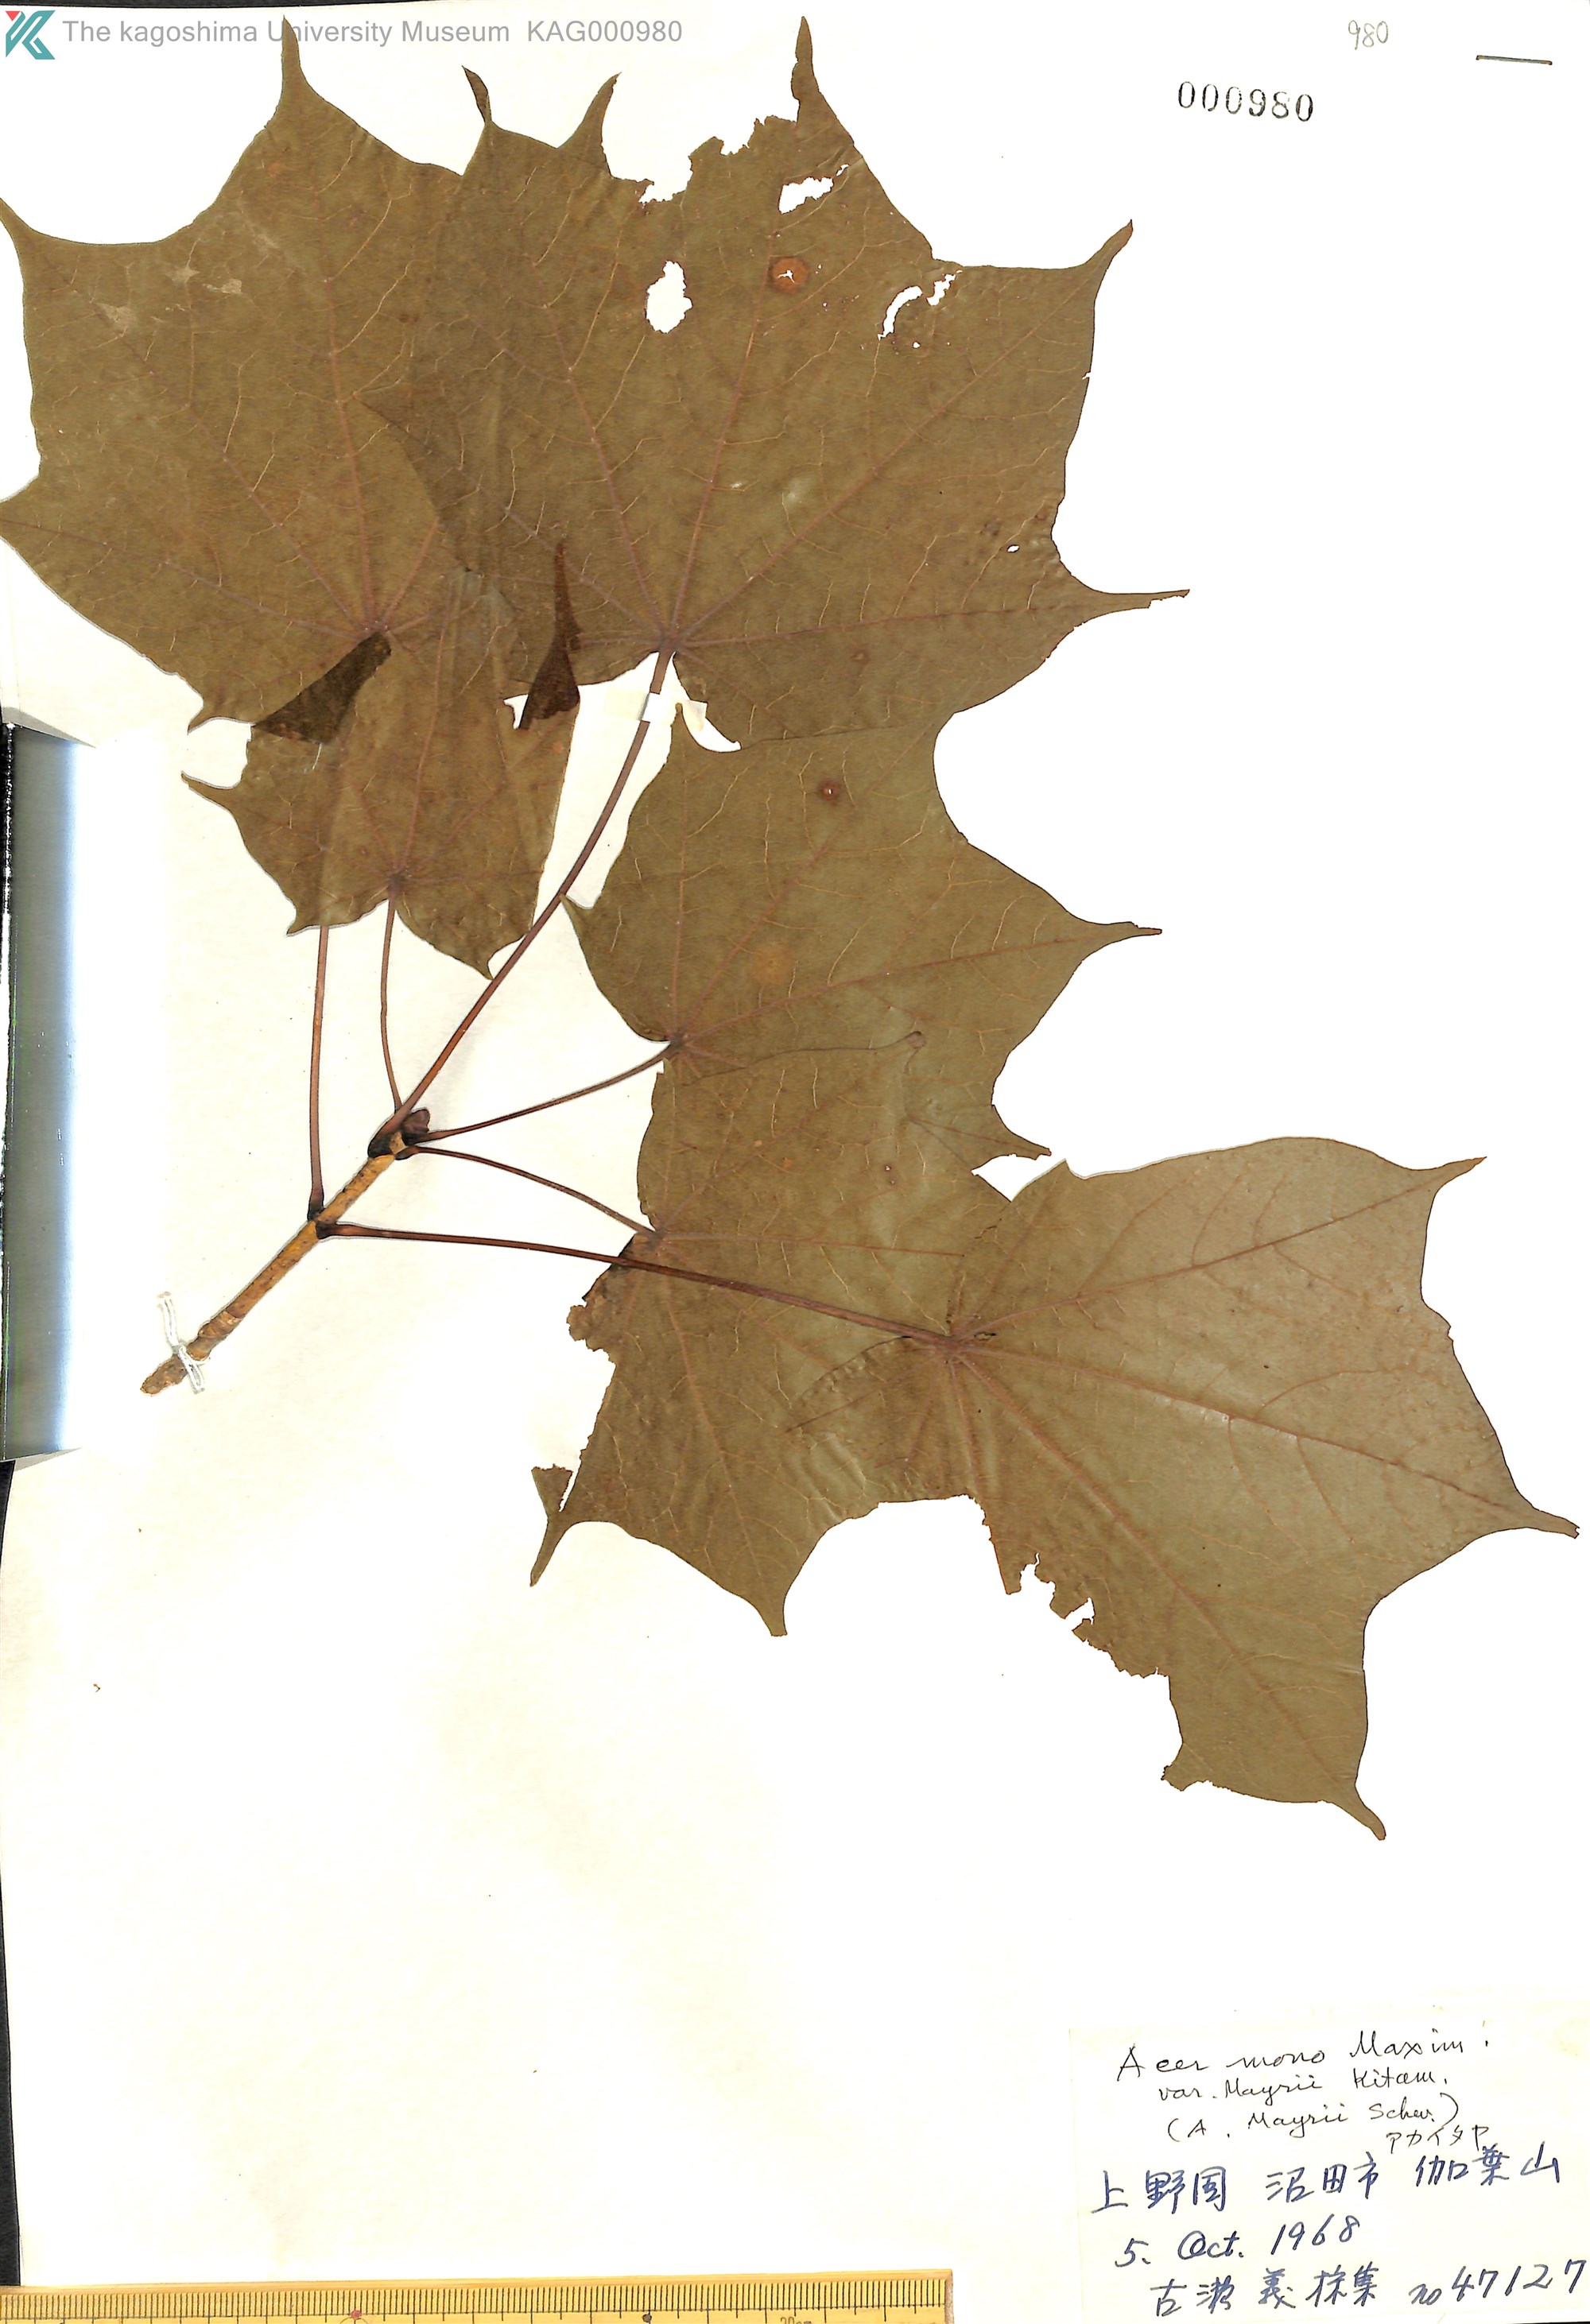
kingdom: Plantae
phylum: Tracheophyta
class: Magnoliopsida
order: Sapindales
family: Sapindaceae
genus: Acer
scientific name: Acer pictum
